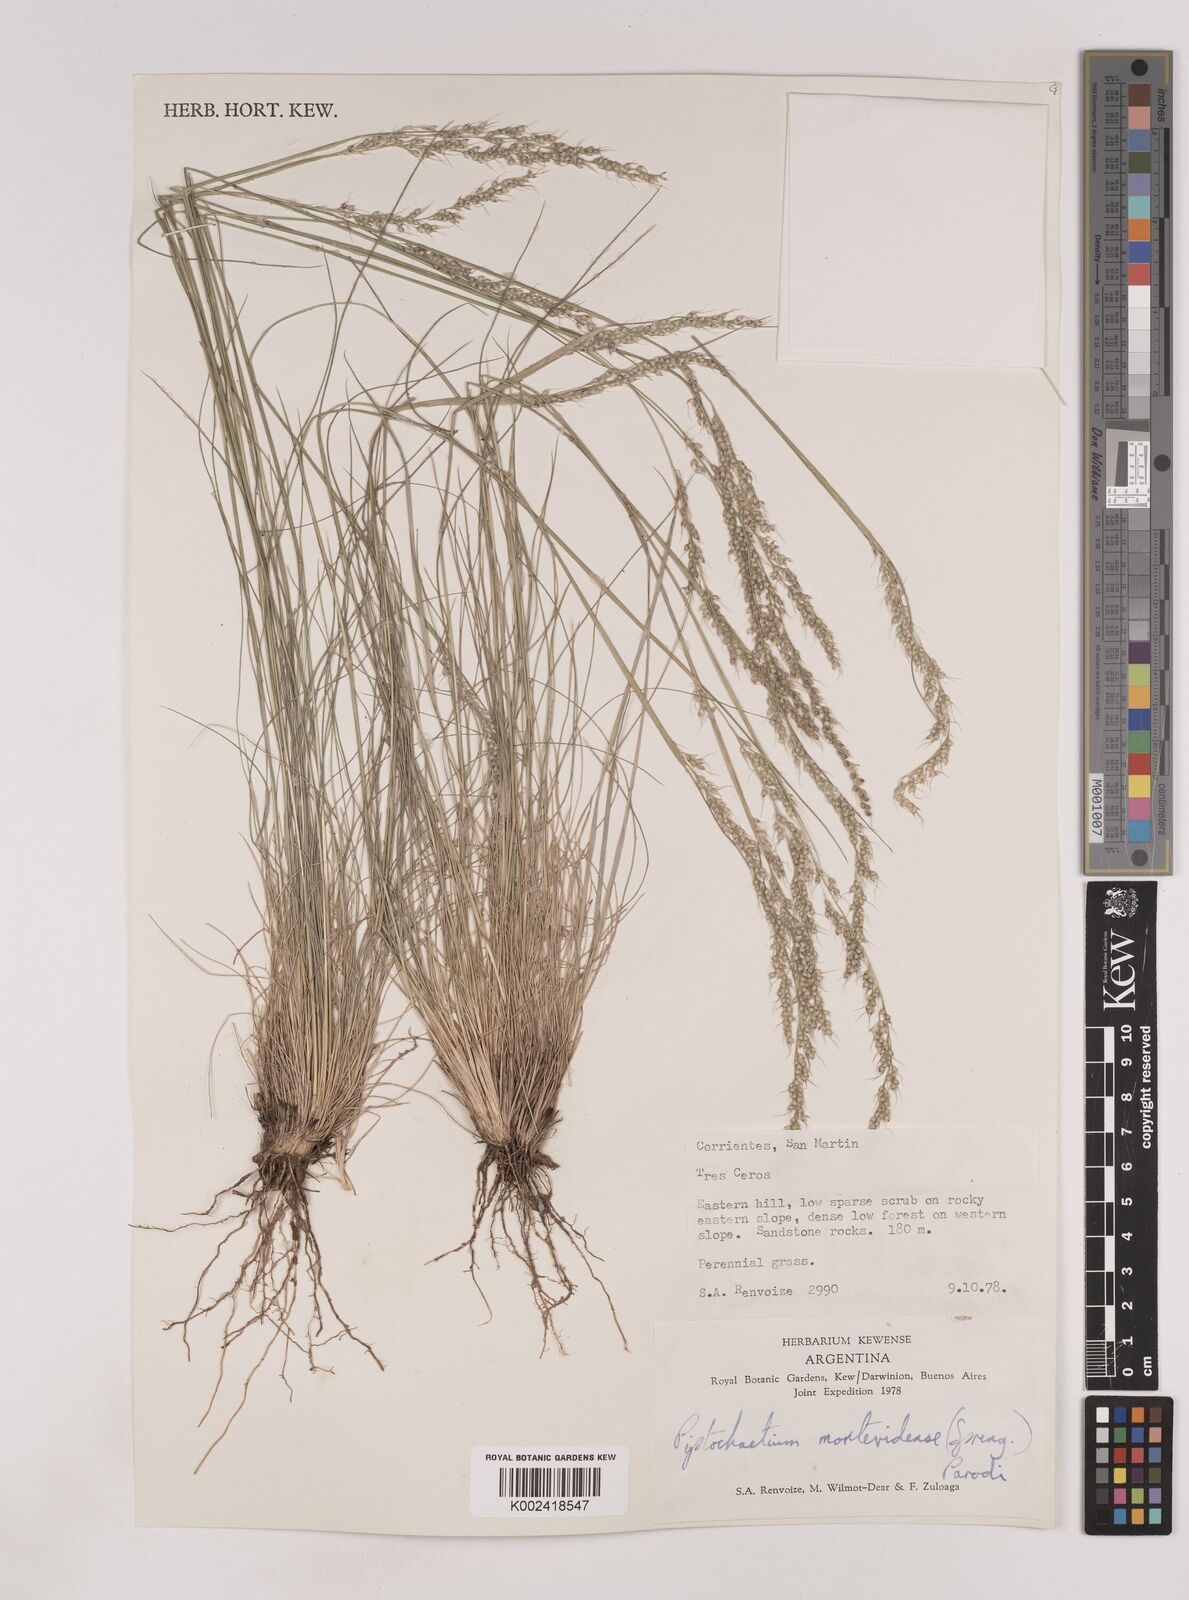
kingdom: Plantae
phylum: Tracheophyta
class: Liliopsida
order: Poales
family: Poaceae
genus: Piptochaetium
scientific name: Piptochaetium montevidense
